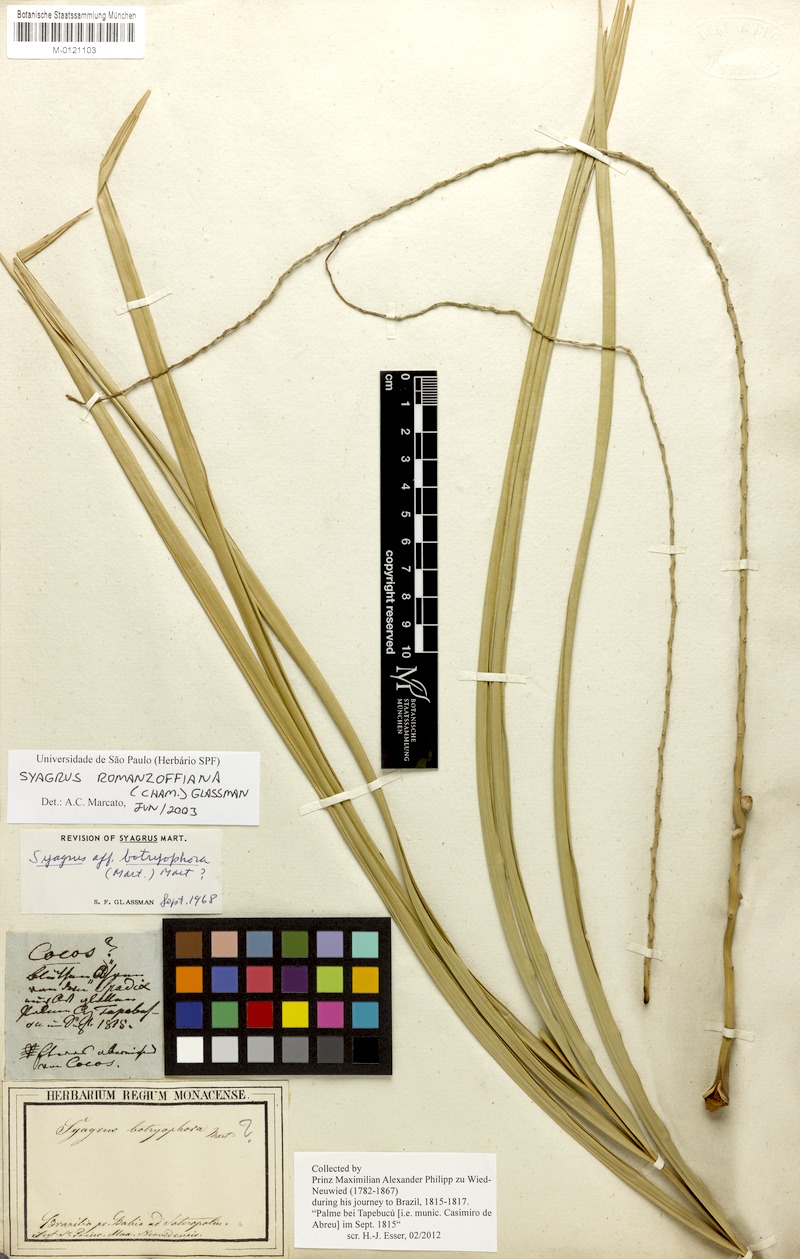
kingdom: Plantae
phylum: Tracheophyta
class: Liliopsida
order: Arecales
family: Arecaceae
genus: Syagrus
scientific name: Syagrus romanzoffiana
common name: Queen palm
